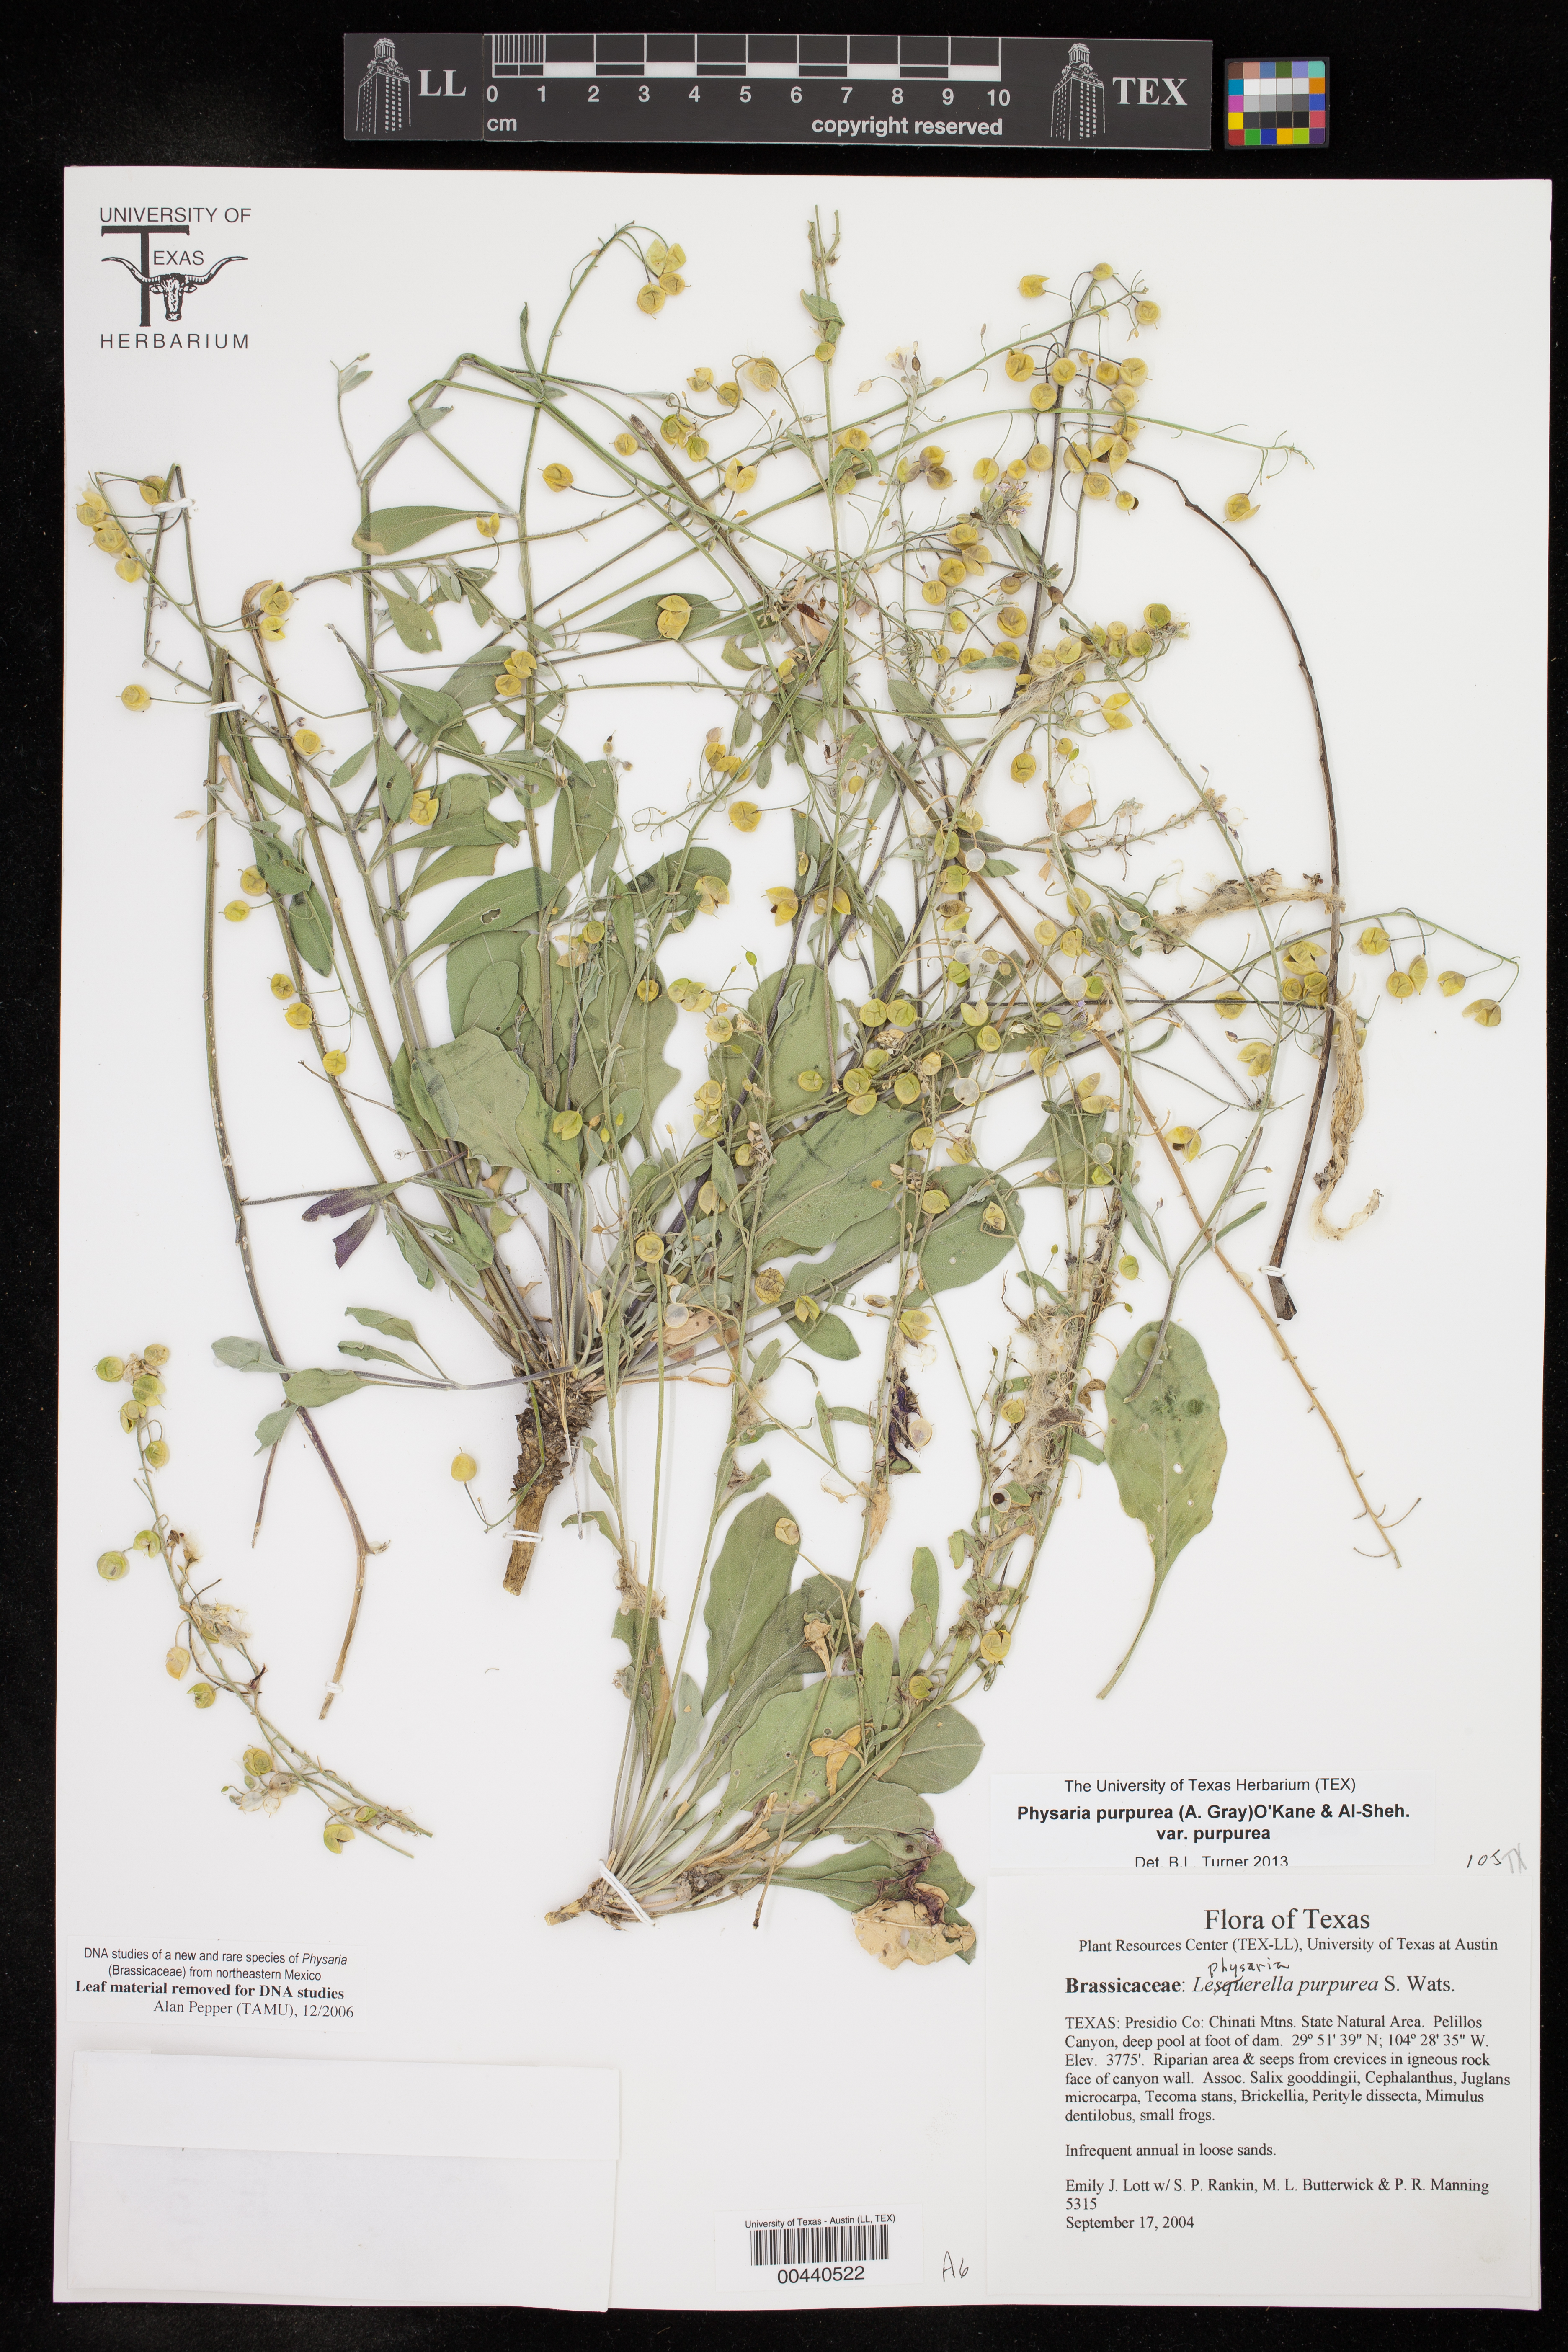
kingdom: Plantae
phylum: Tracheophyta
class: Magnoliopsida
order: Brassicales
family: Brassicaceae
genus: Physaria
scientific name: Physaria purpurea
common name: Rose bladderpod
